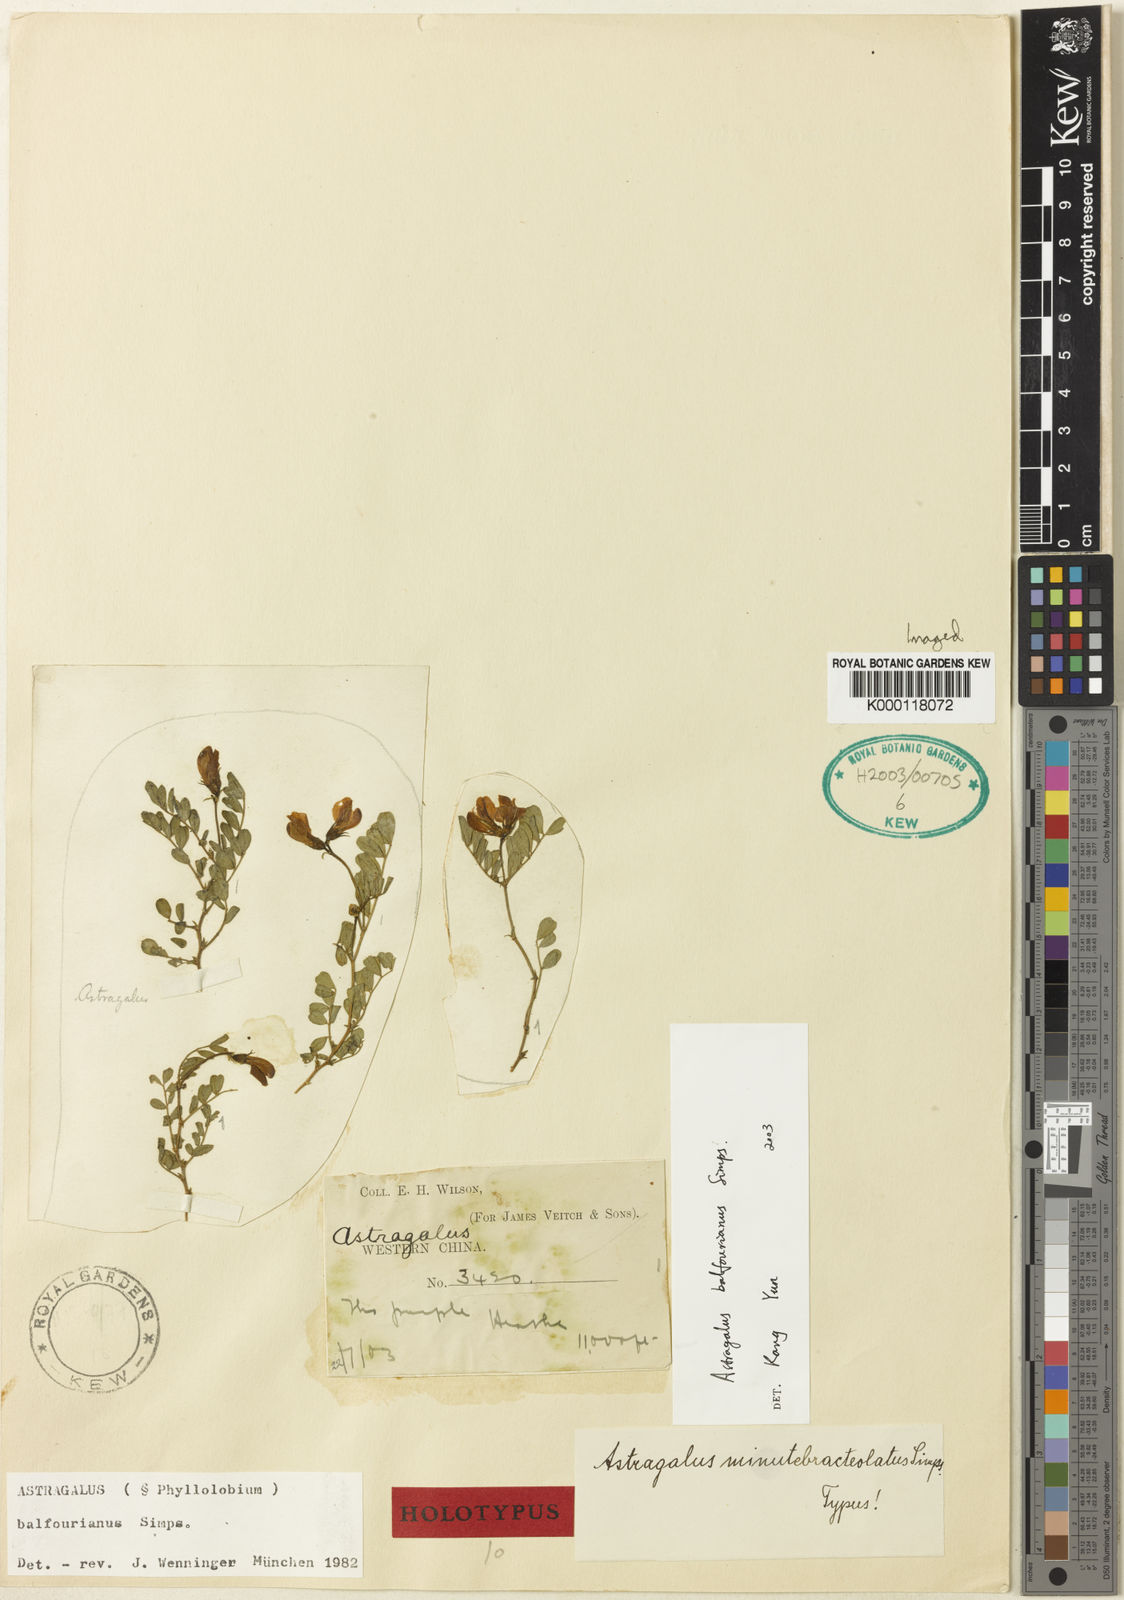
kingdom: Plantae
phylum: Tracheophyta
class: Magnoliopsida
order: Fabales
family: Fabaceae
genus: Phyllolobium
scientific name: Phyllolobium balfourianum
